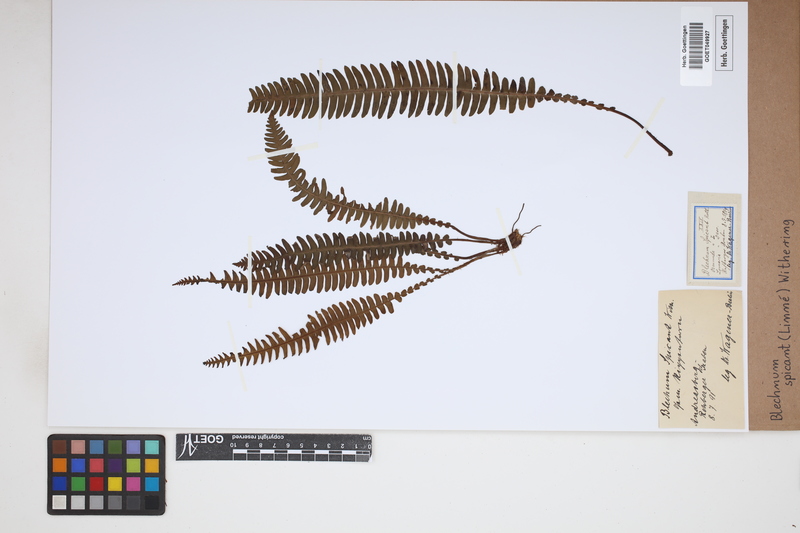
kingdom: Plantae
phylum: Tracheophyta
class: Polypodiopsida
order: Polypodiales
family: Blechnaceae
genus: Struthiopteris
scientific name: Struthiopteris spicant
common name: Deer fern
